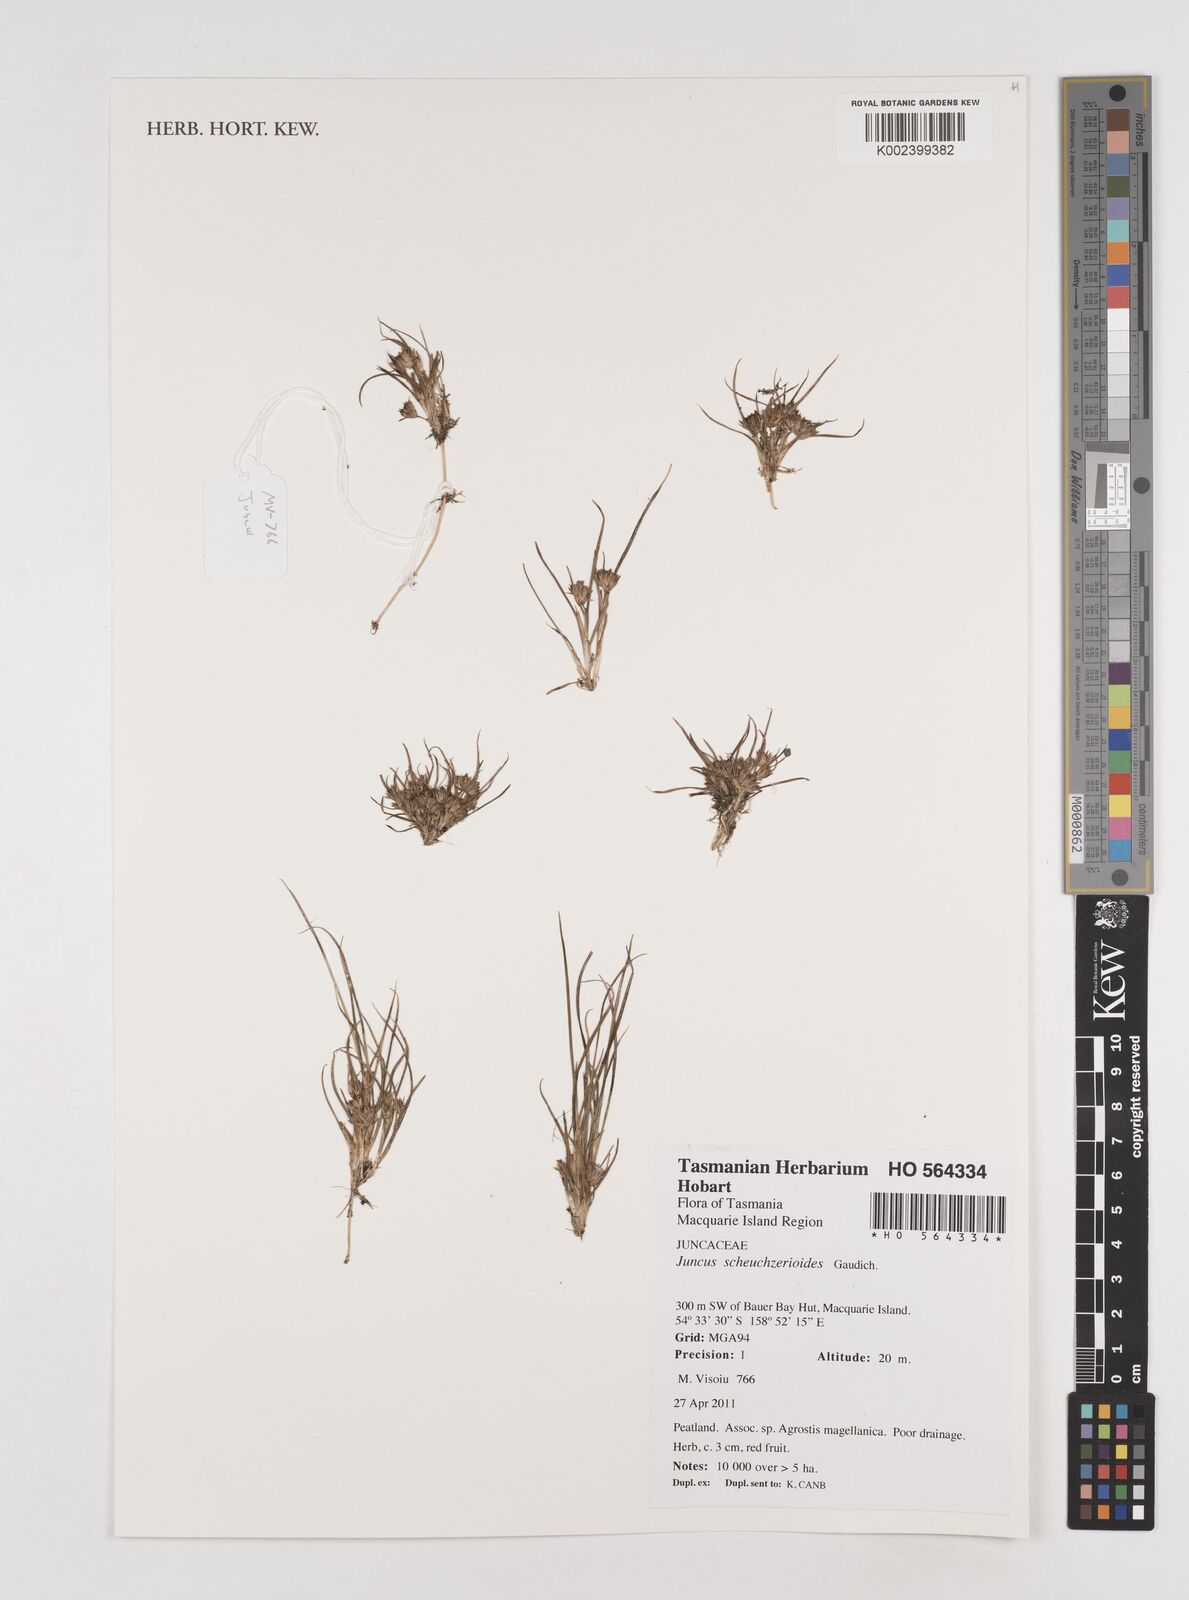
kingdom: Plantae
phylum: Tracheophyta
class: Liliopsida
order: Poales
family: Juncaceae
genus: Juncus
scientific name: Juncus sandwithii
